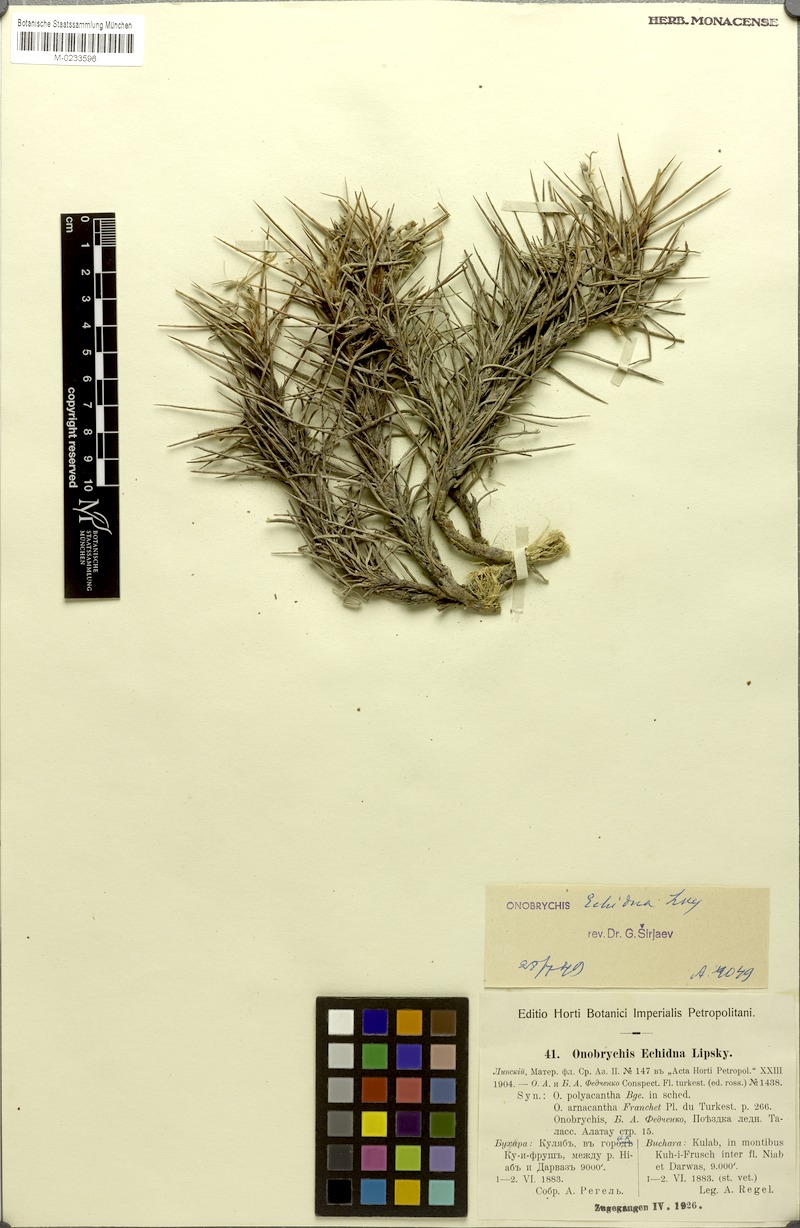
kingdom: Plantae
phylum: Tracheophyta
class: Magnoliopsida
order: Fabales
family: Fabaceae
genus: Onobrychis
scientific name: Onobrychis echidna
